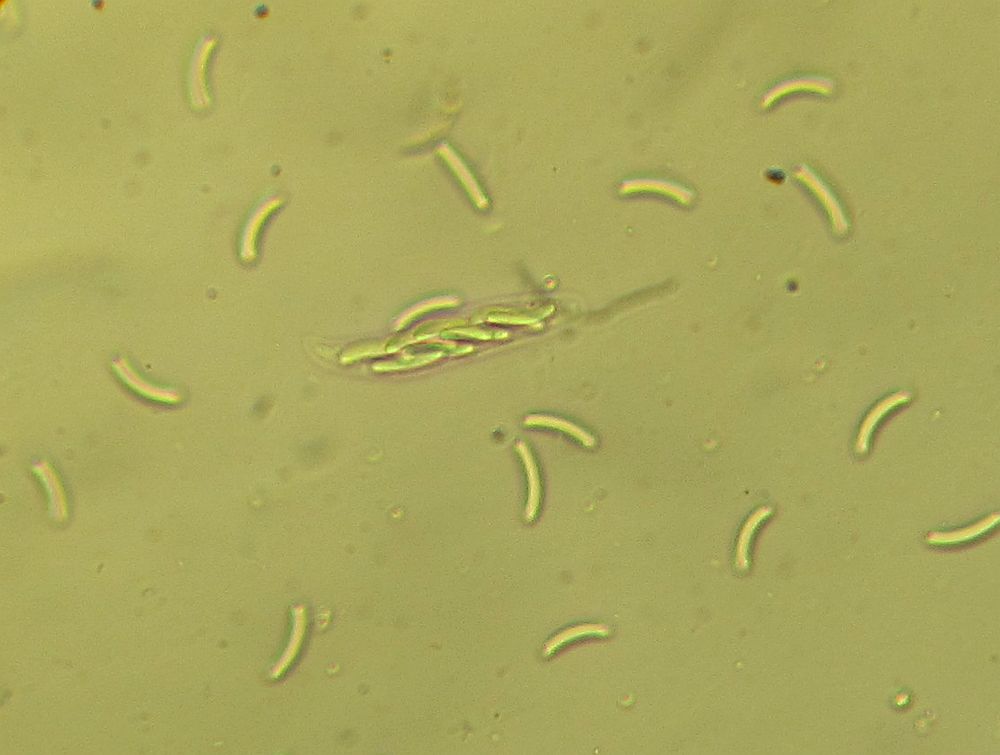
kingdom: Fungi
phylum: Ascomycota
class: Sordariomycetes
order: Diaporthales
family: Valsaceae
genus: Cytospora
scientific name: Cytospora populina
